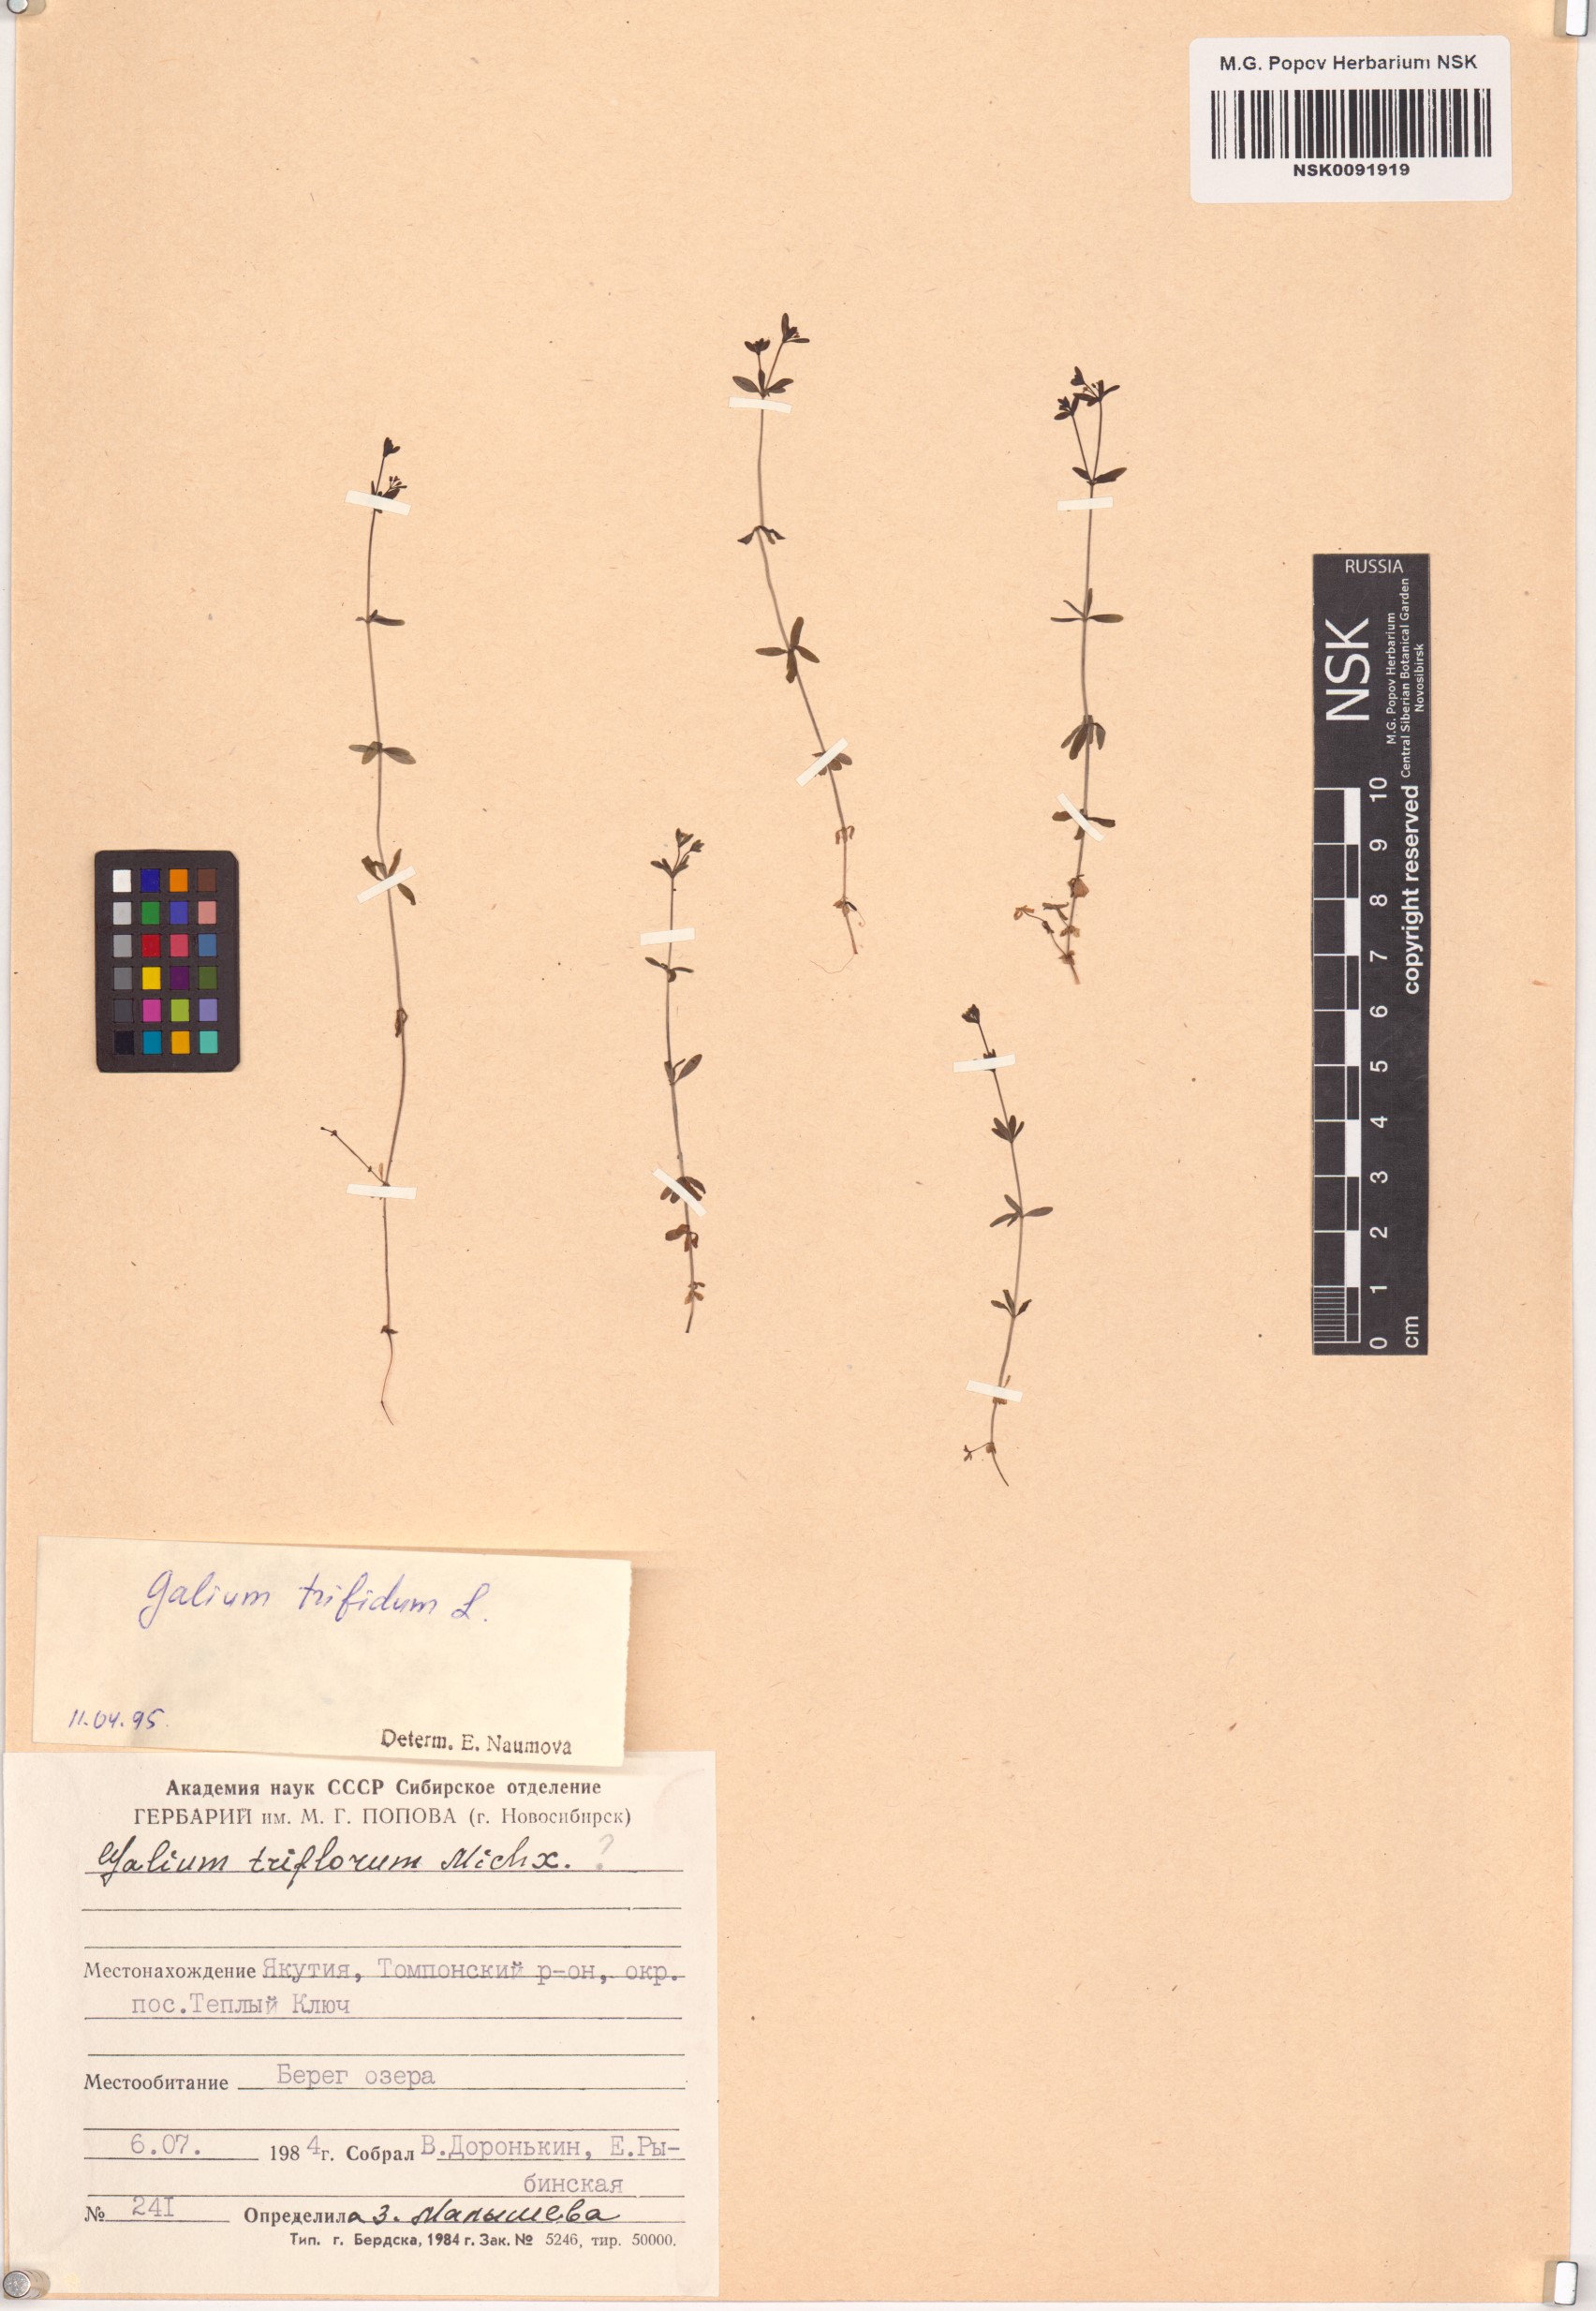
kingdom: Plantae
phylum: Tracheophyta
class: Magnoliopsida
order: Gentianales
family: Rubiaceae
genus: Galium
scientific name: Galium trifidum
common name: Small bedstraw
